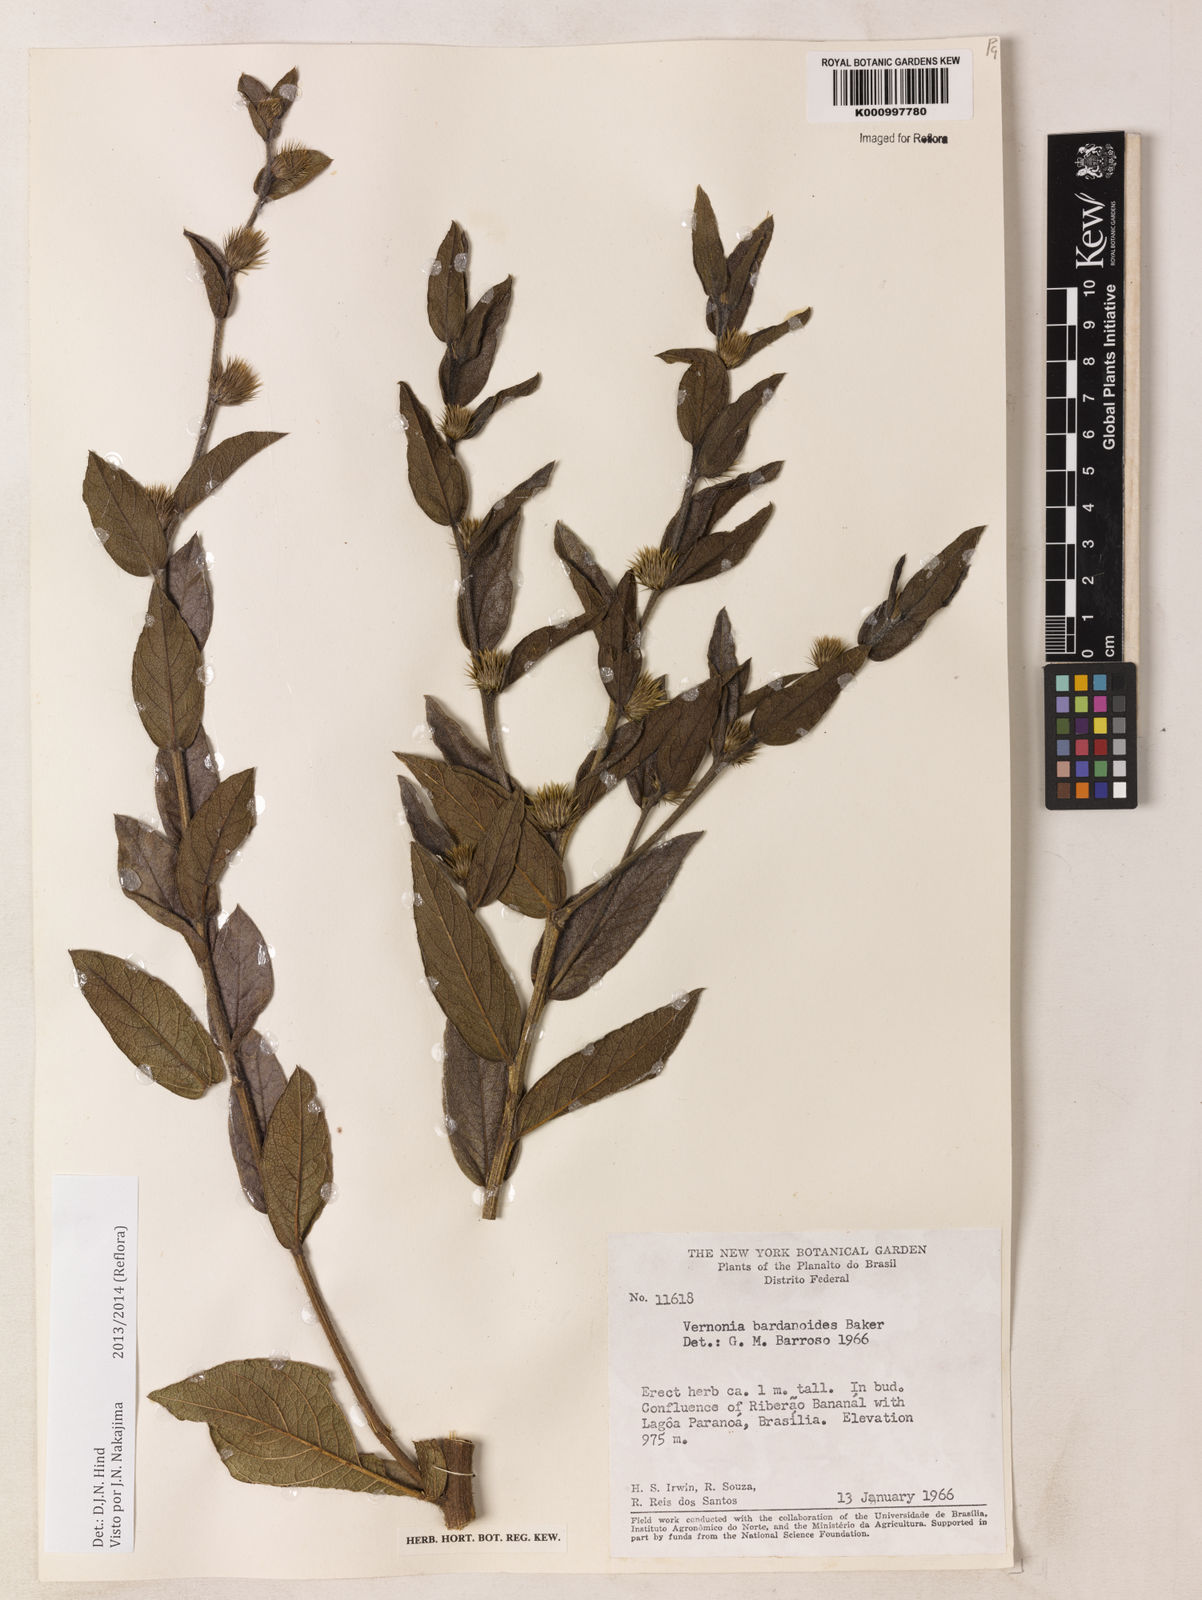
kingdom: Plantae
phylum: Tracheophyta
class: Magnoliopsida
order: Asterales
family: Asteraceae
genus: Lessingianthus
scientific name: Lessingianthus bardanioides
